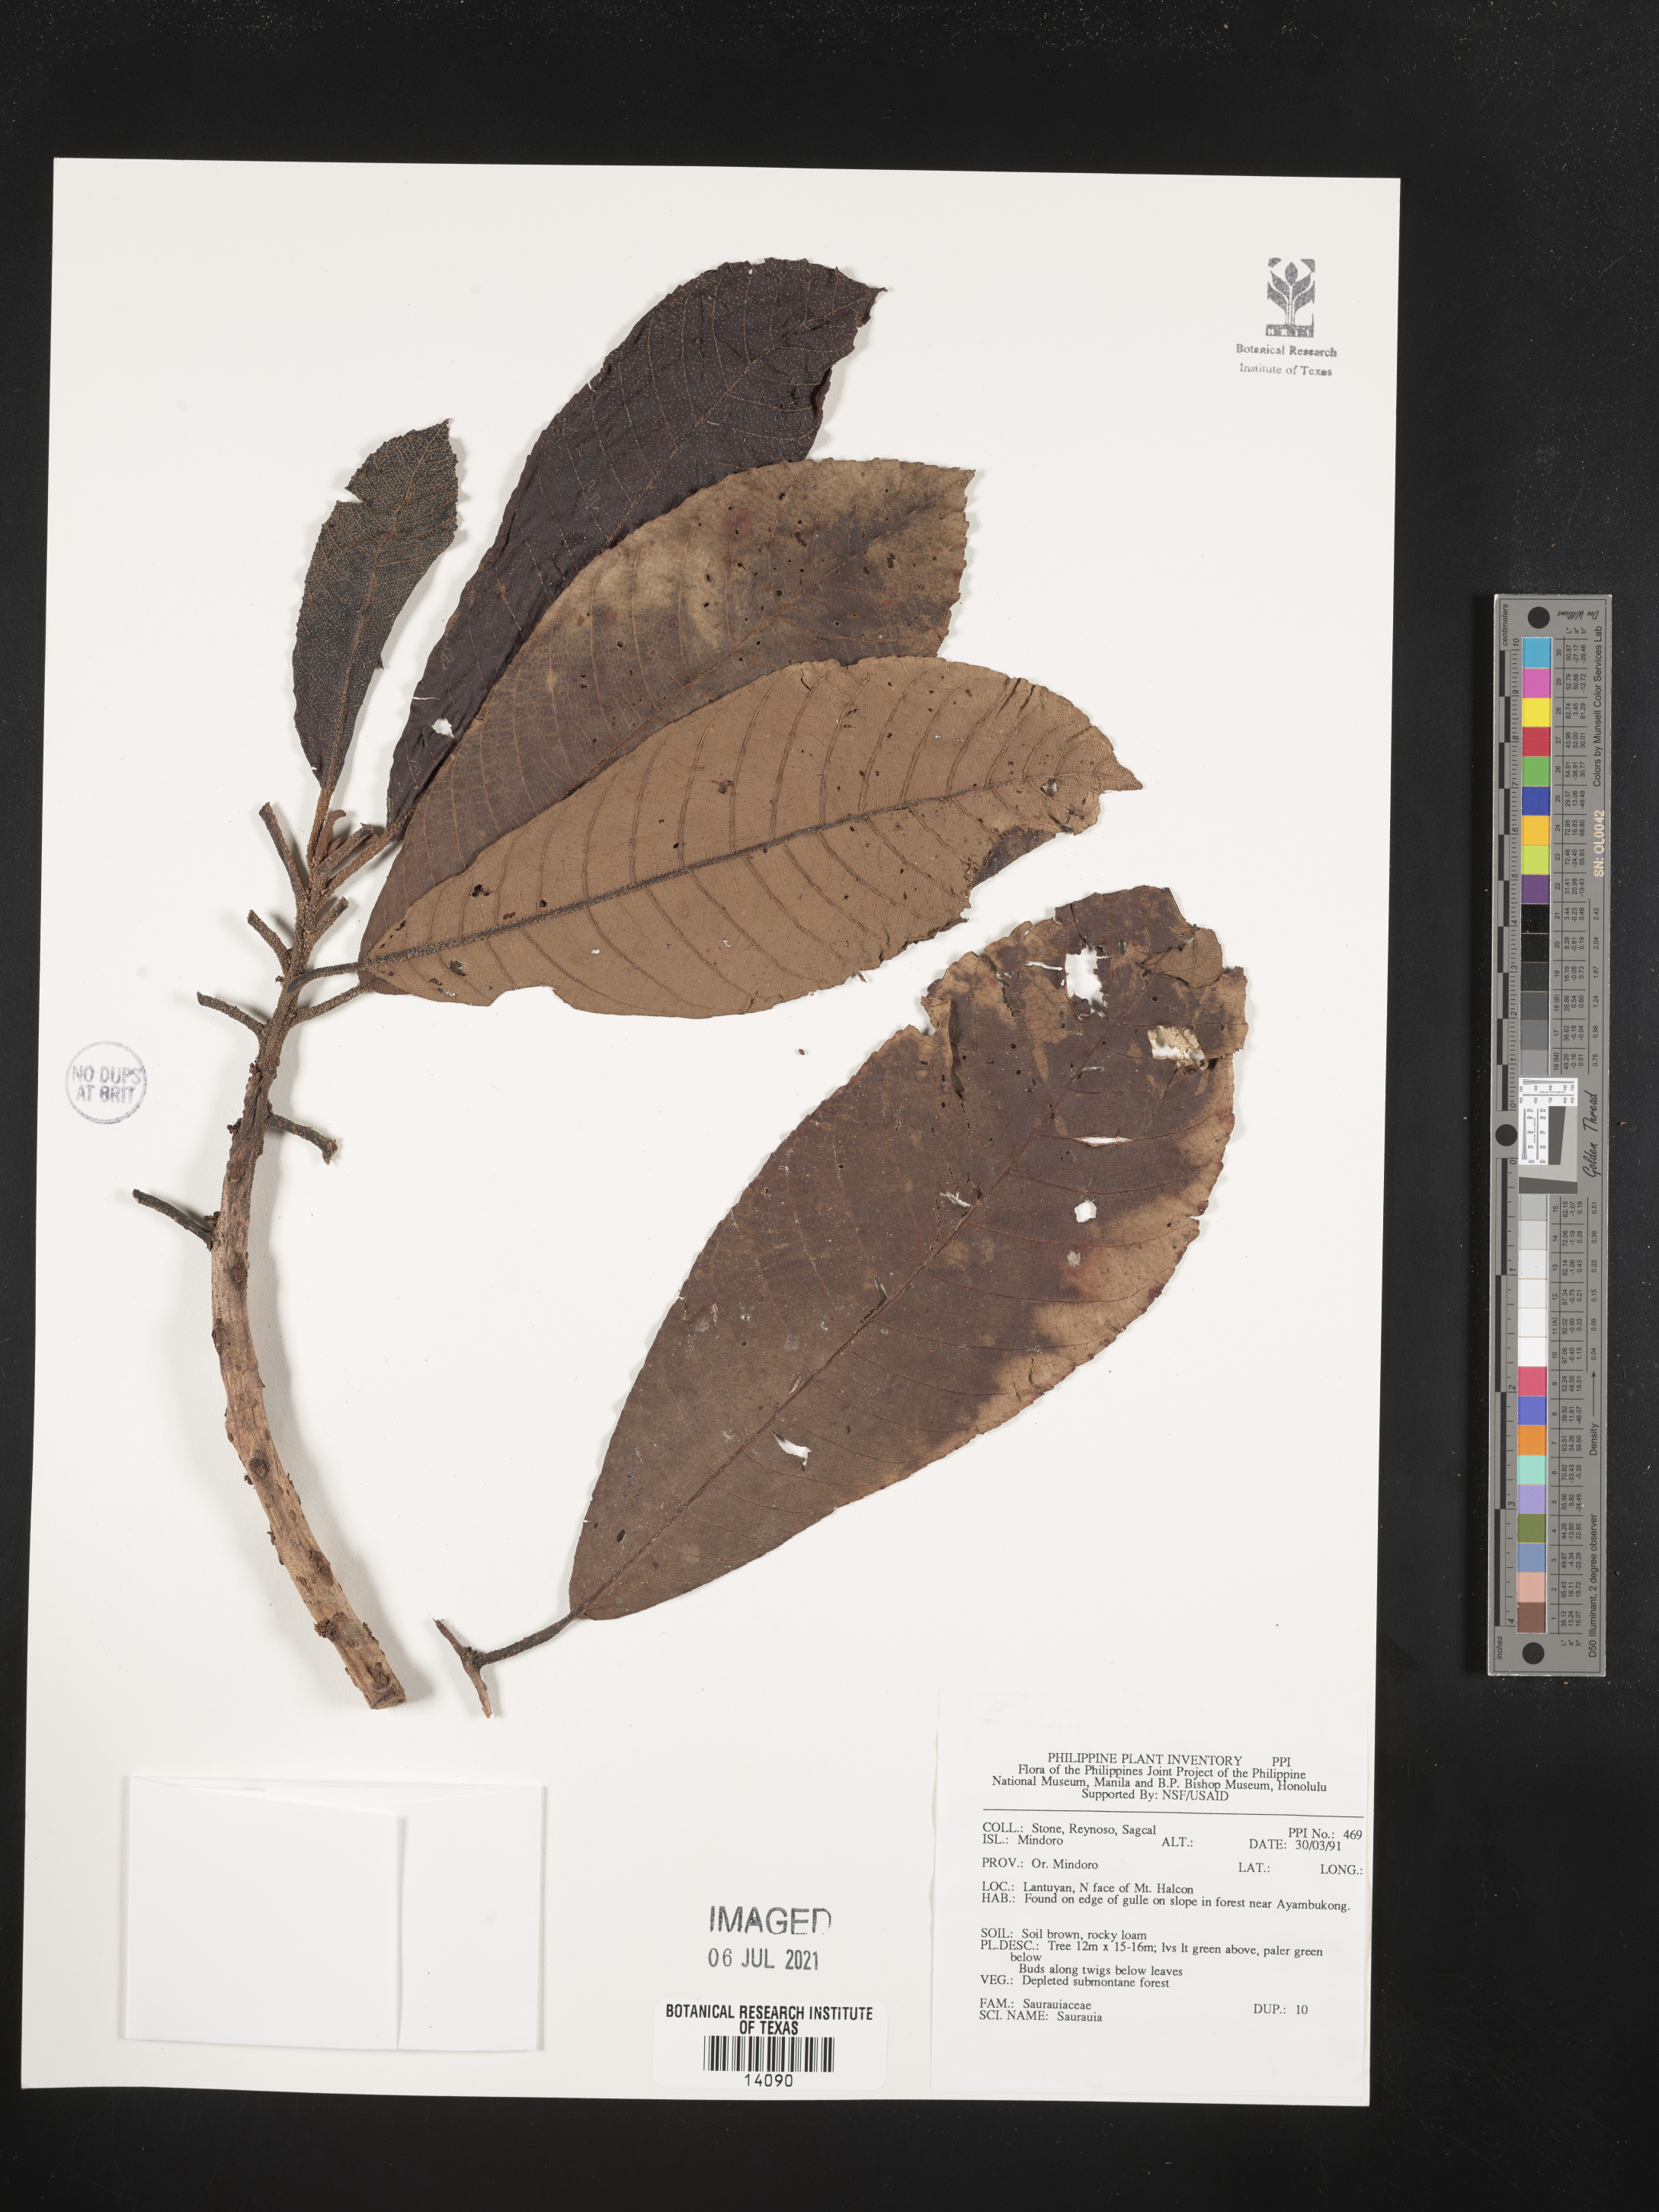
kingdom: Plantae
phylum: Tracheophyta
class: Magnoliopsida
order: Ericales
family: Actinidiaceae
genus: Saurauia
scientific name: Saurauia
